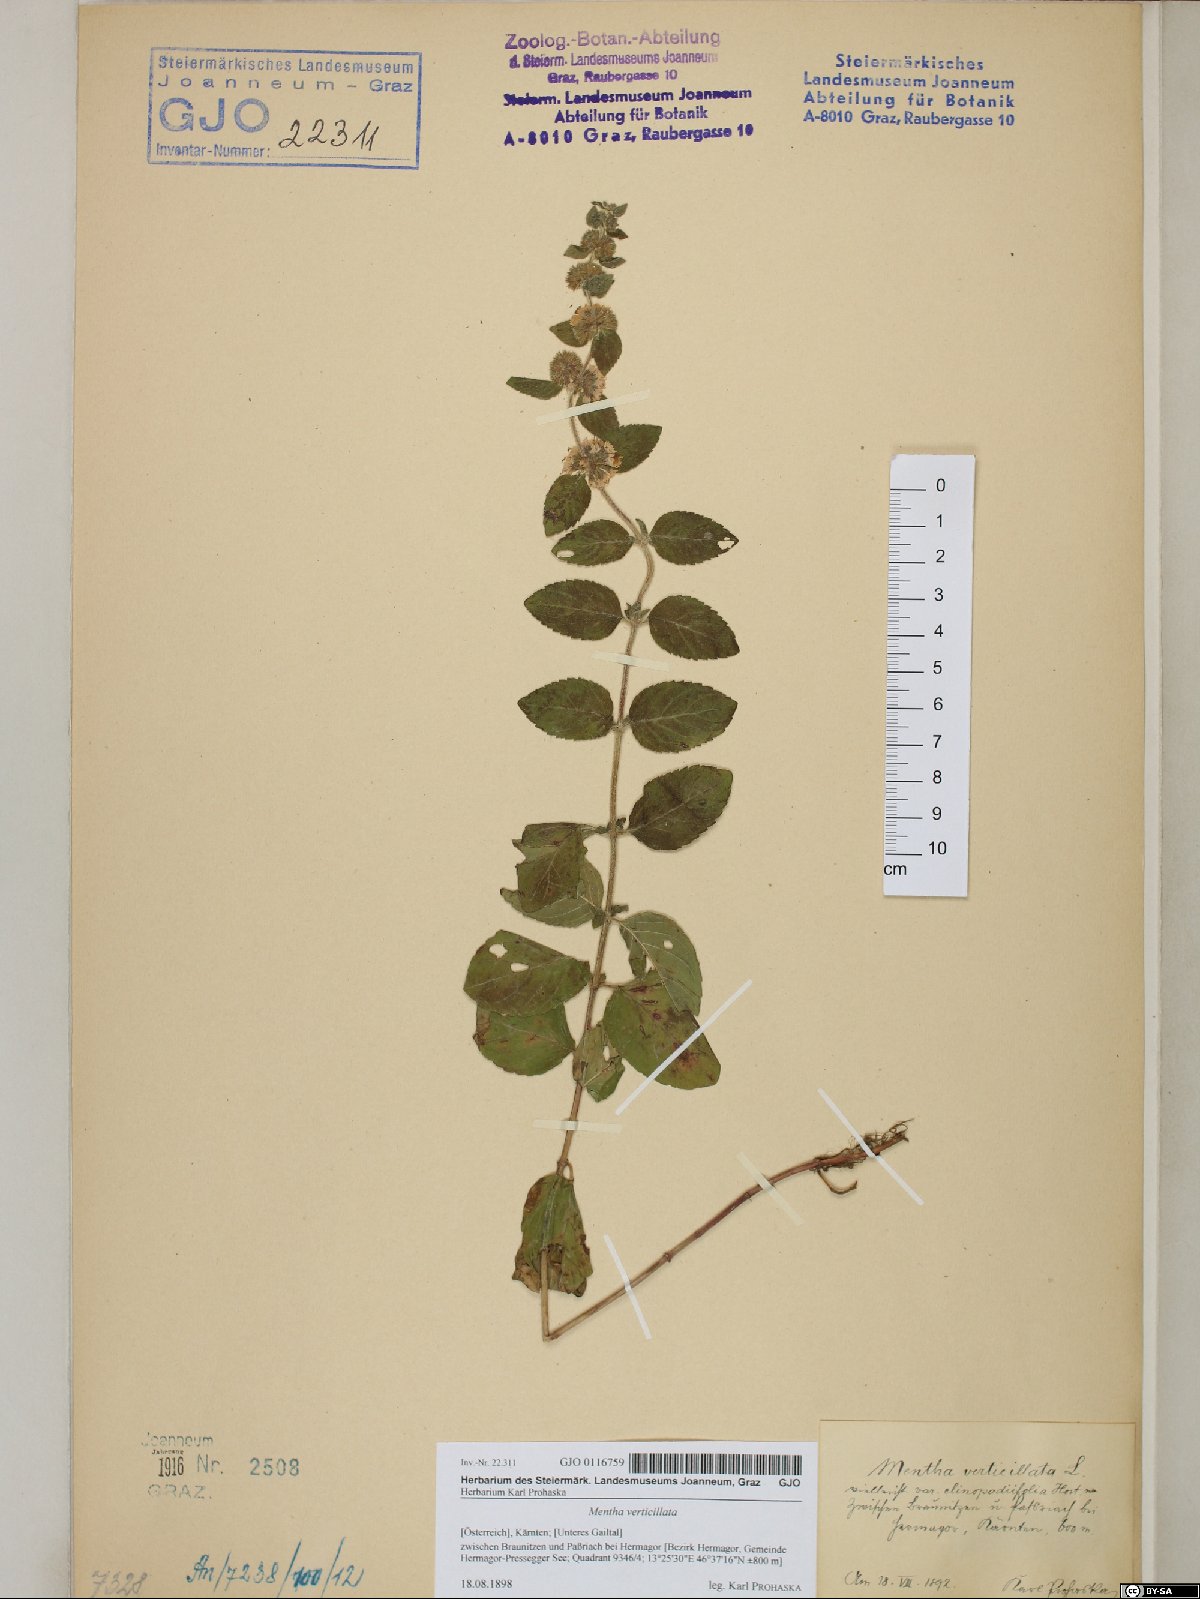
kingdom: Plantae
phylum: Tracheophyta
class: Magnoliopsida
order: Lamiales
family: Lamiaceae
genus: Mentha
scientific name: Mentha verticillata
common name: Mint
